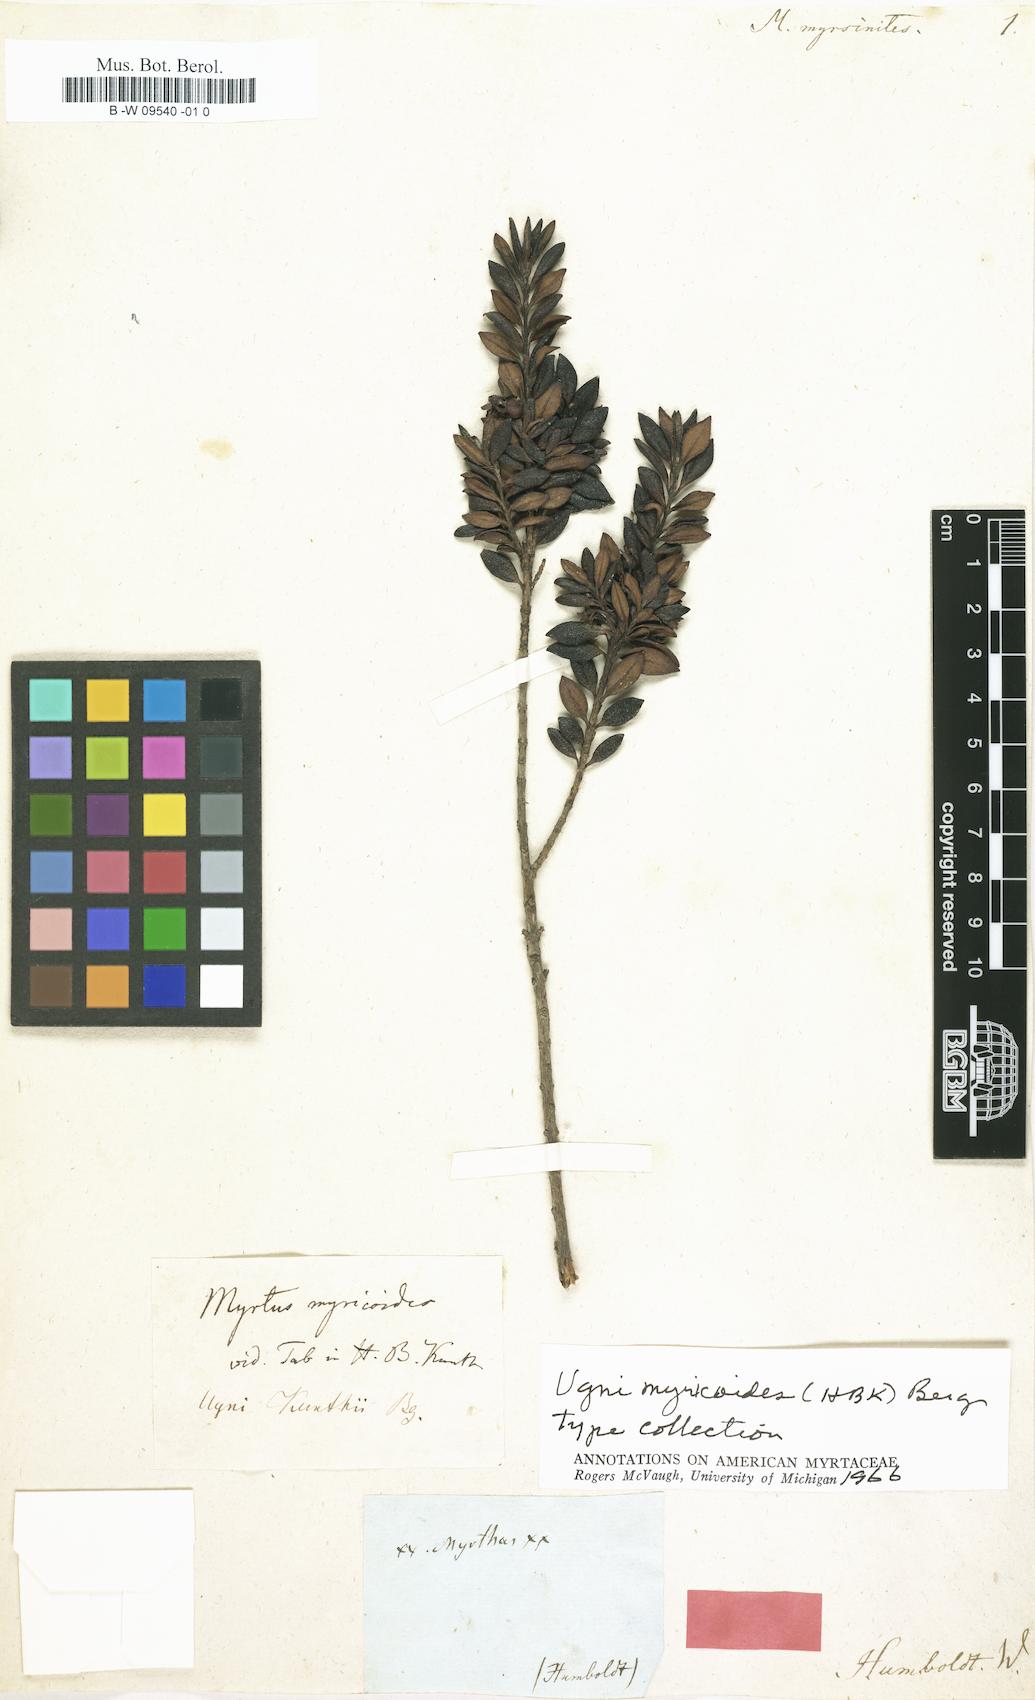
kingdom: Plantae
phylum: Tracheophyta
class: Magnoliopsida
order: Myrtales
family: Myrtaceae
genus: Myrtus
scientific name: Myrtus myrsinites
